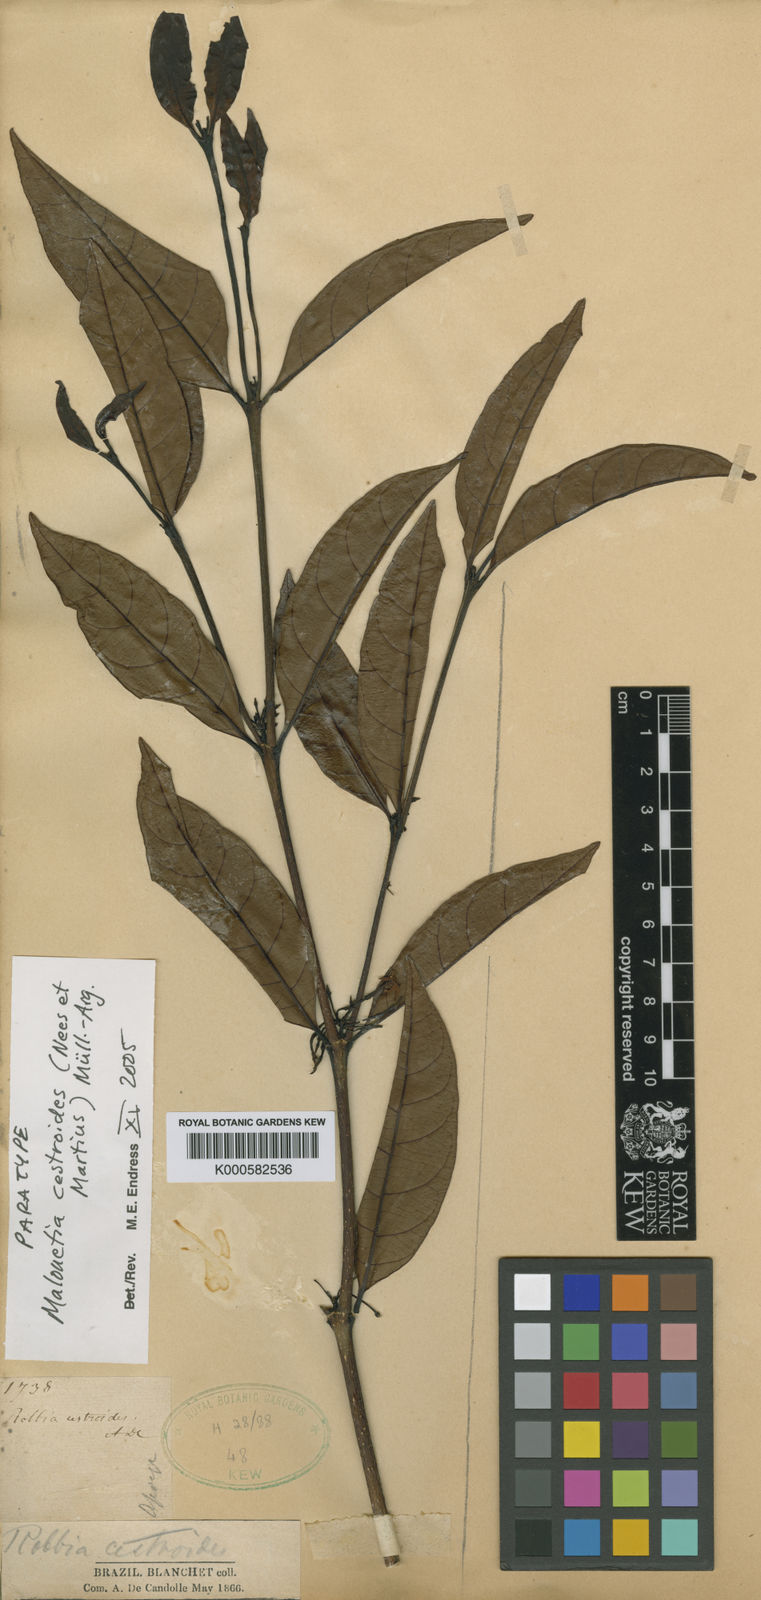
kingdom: Plantae
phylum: Tracheophyta
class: Magnoliopsida
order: Gentianales
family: Apocynaceae
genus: Malouetia
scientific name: Malouetia
